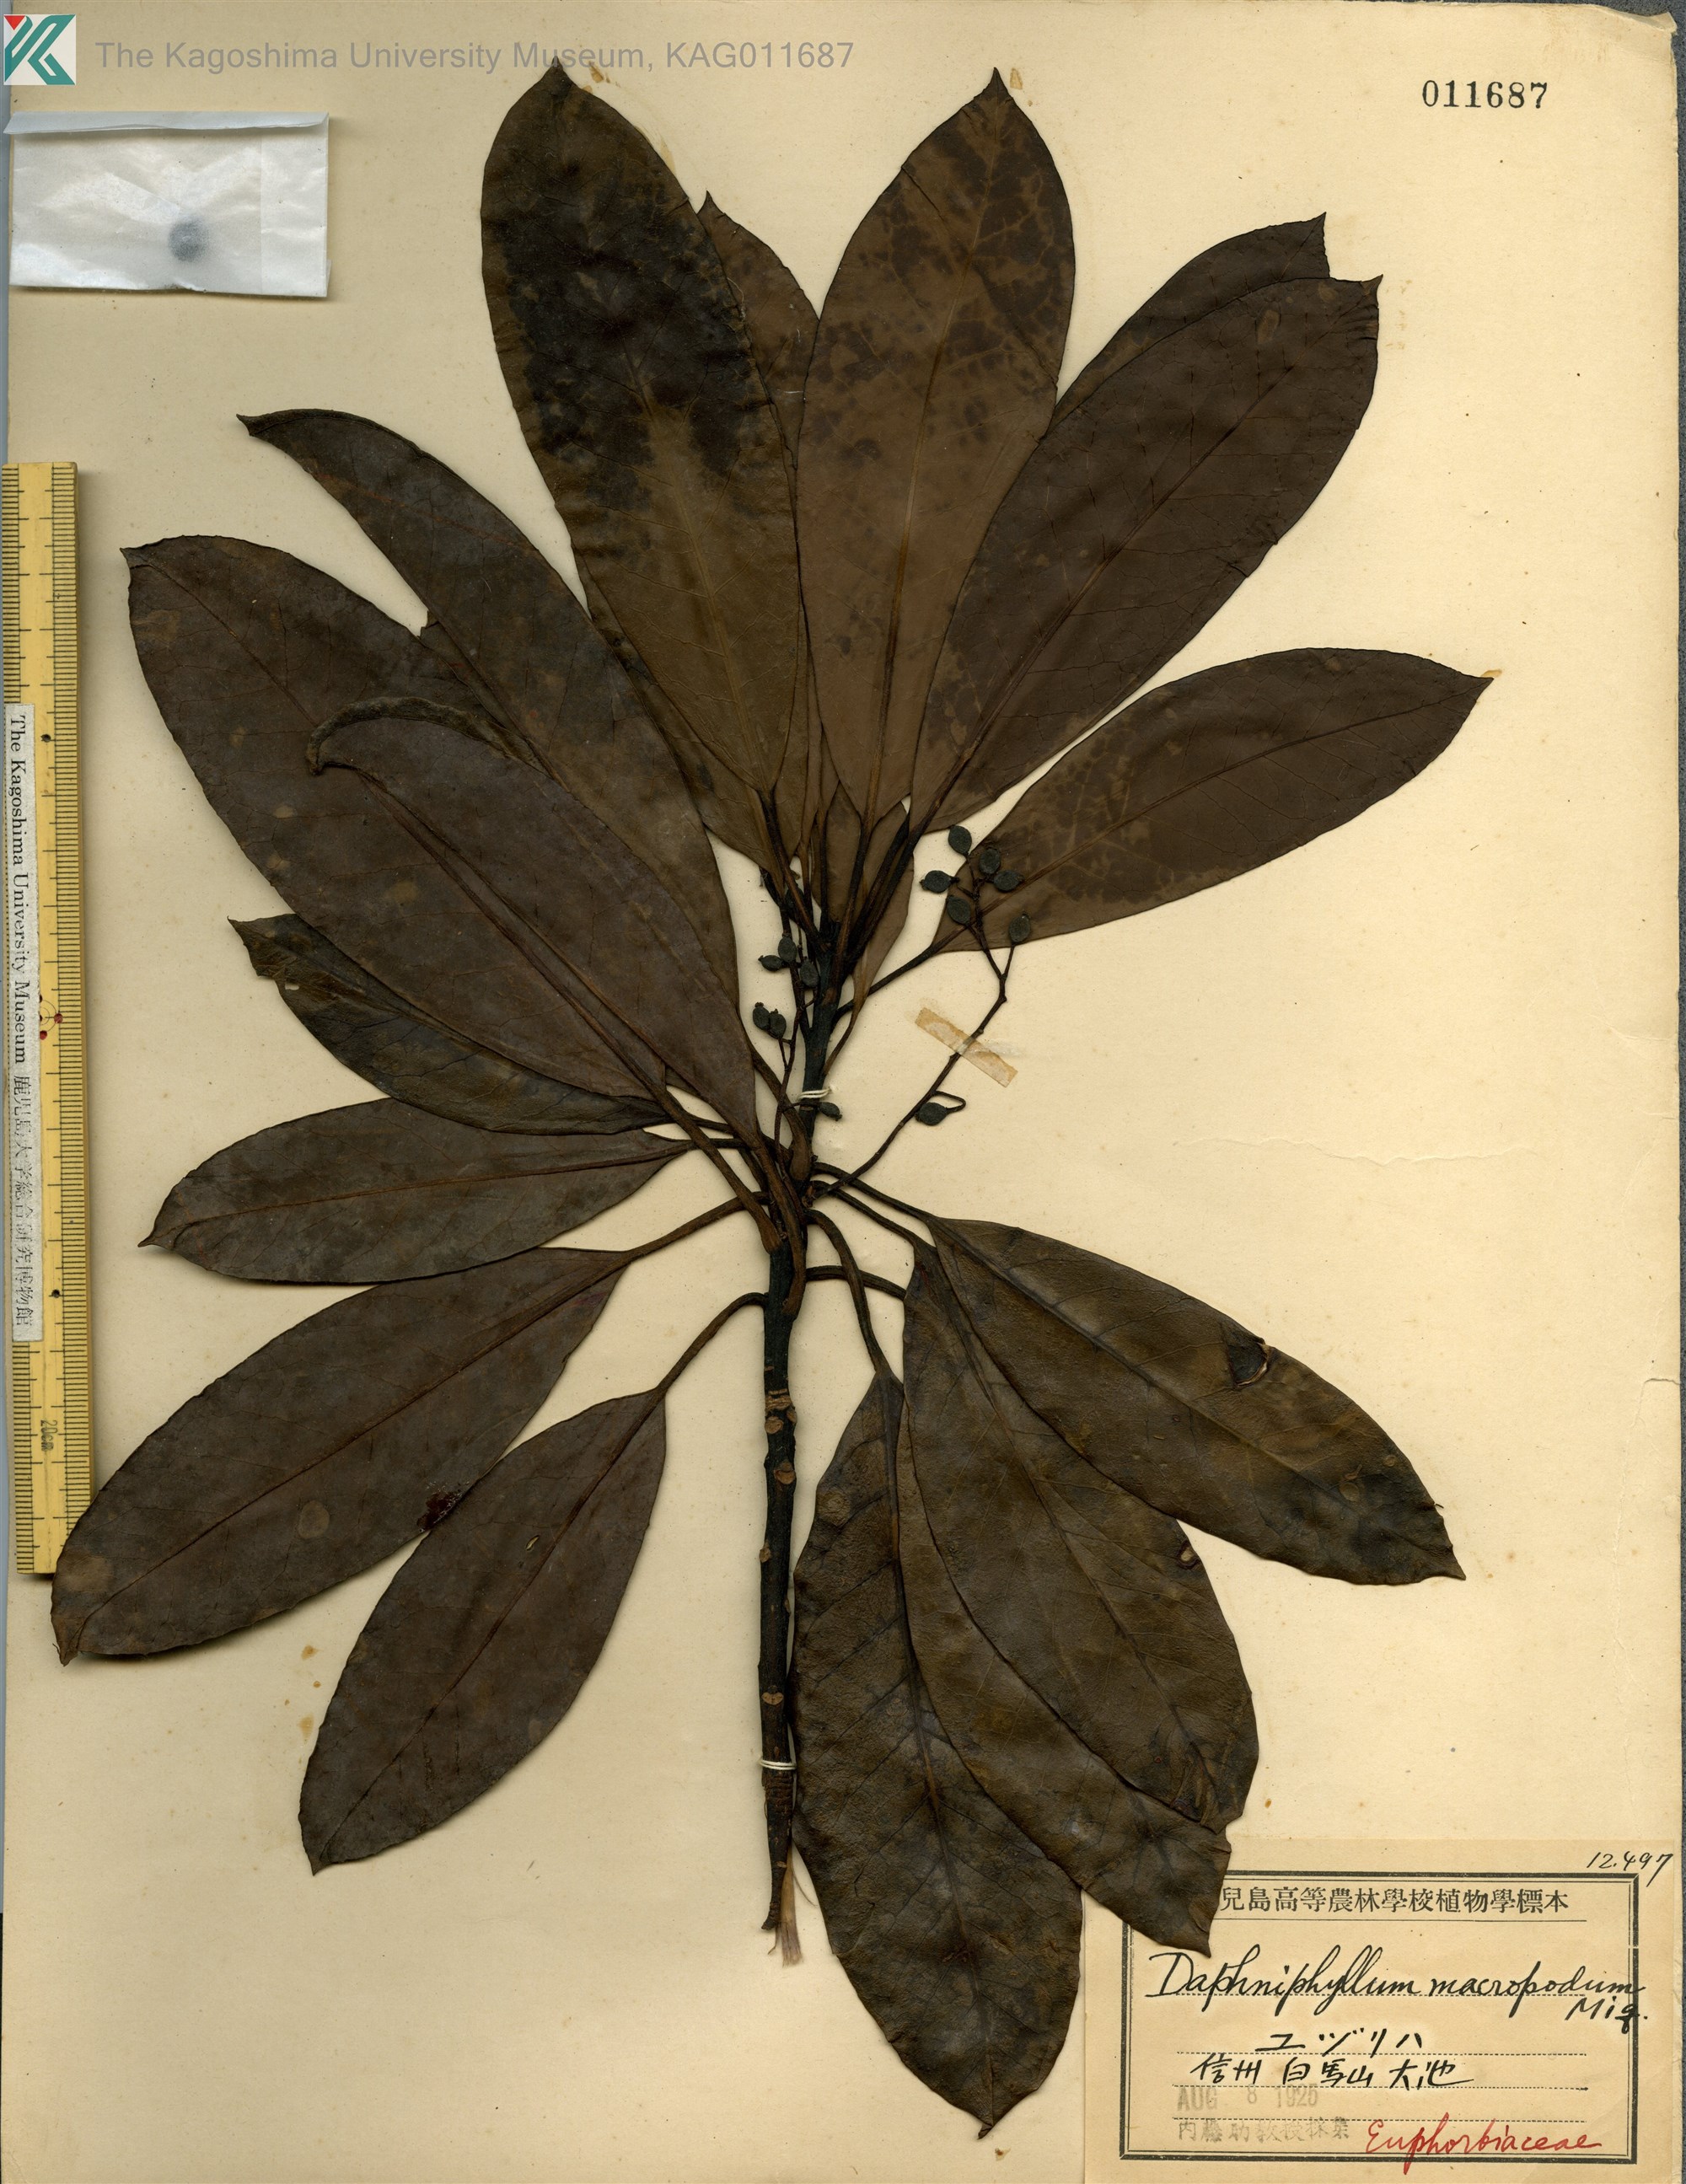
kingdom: Plantae
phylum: Tracheophyta
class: Magnoliopsida
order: Saxifragales
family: Daphniphyllaceae
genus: Daphniphyllum
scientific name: Daphniphyllum macropodum
